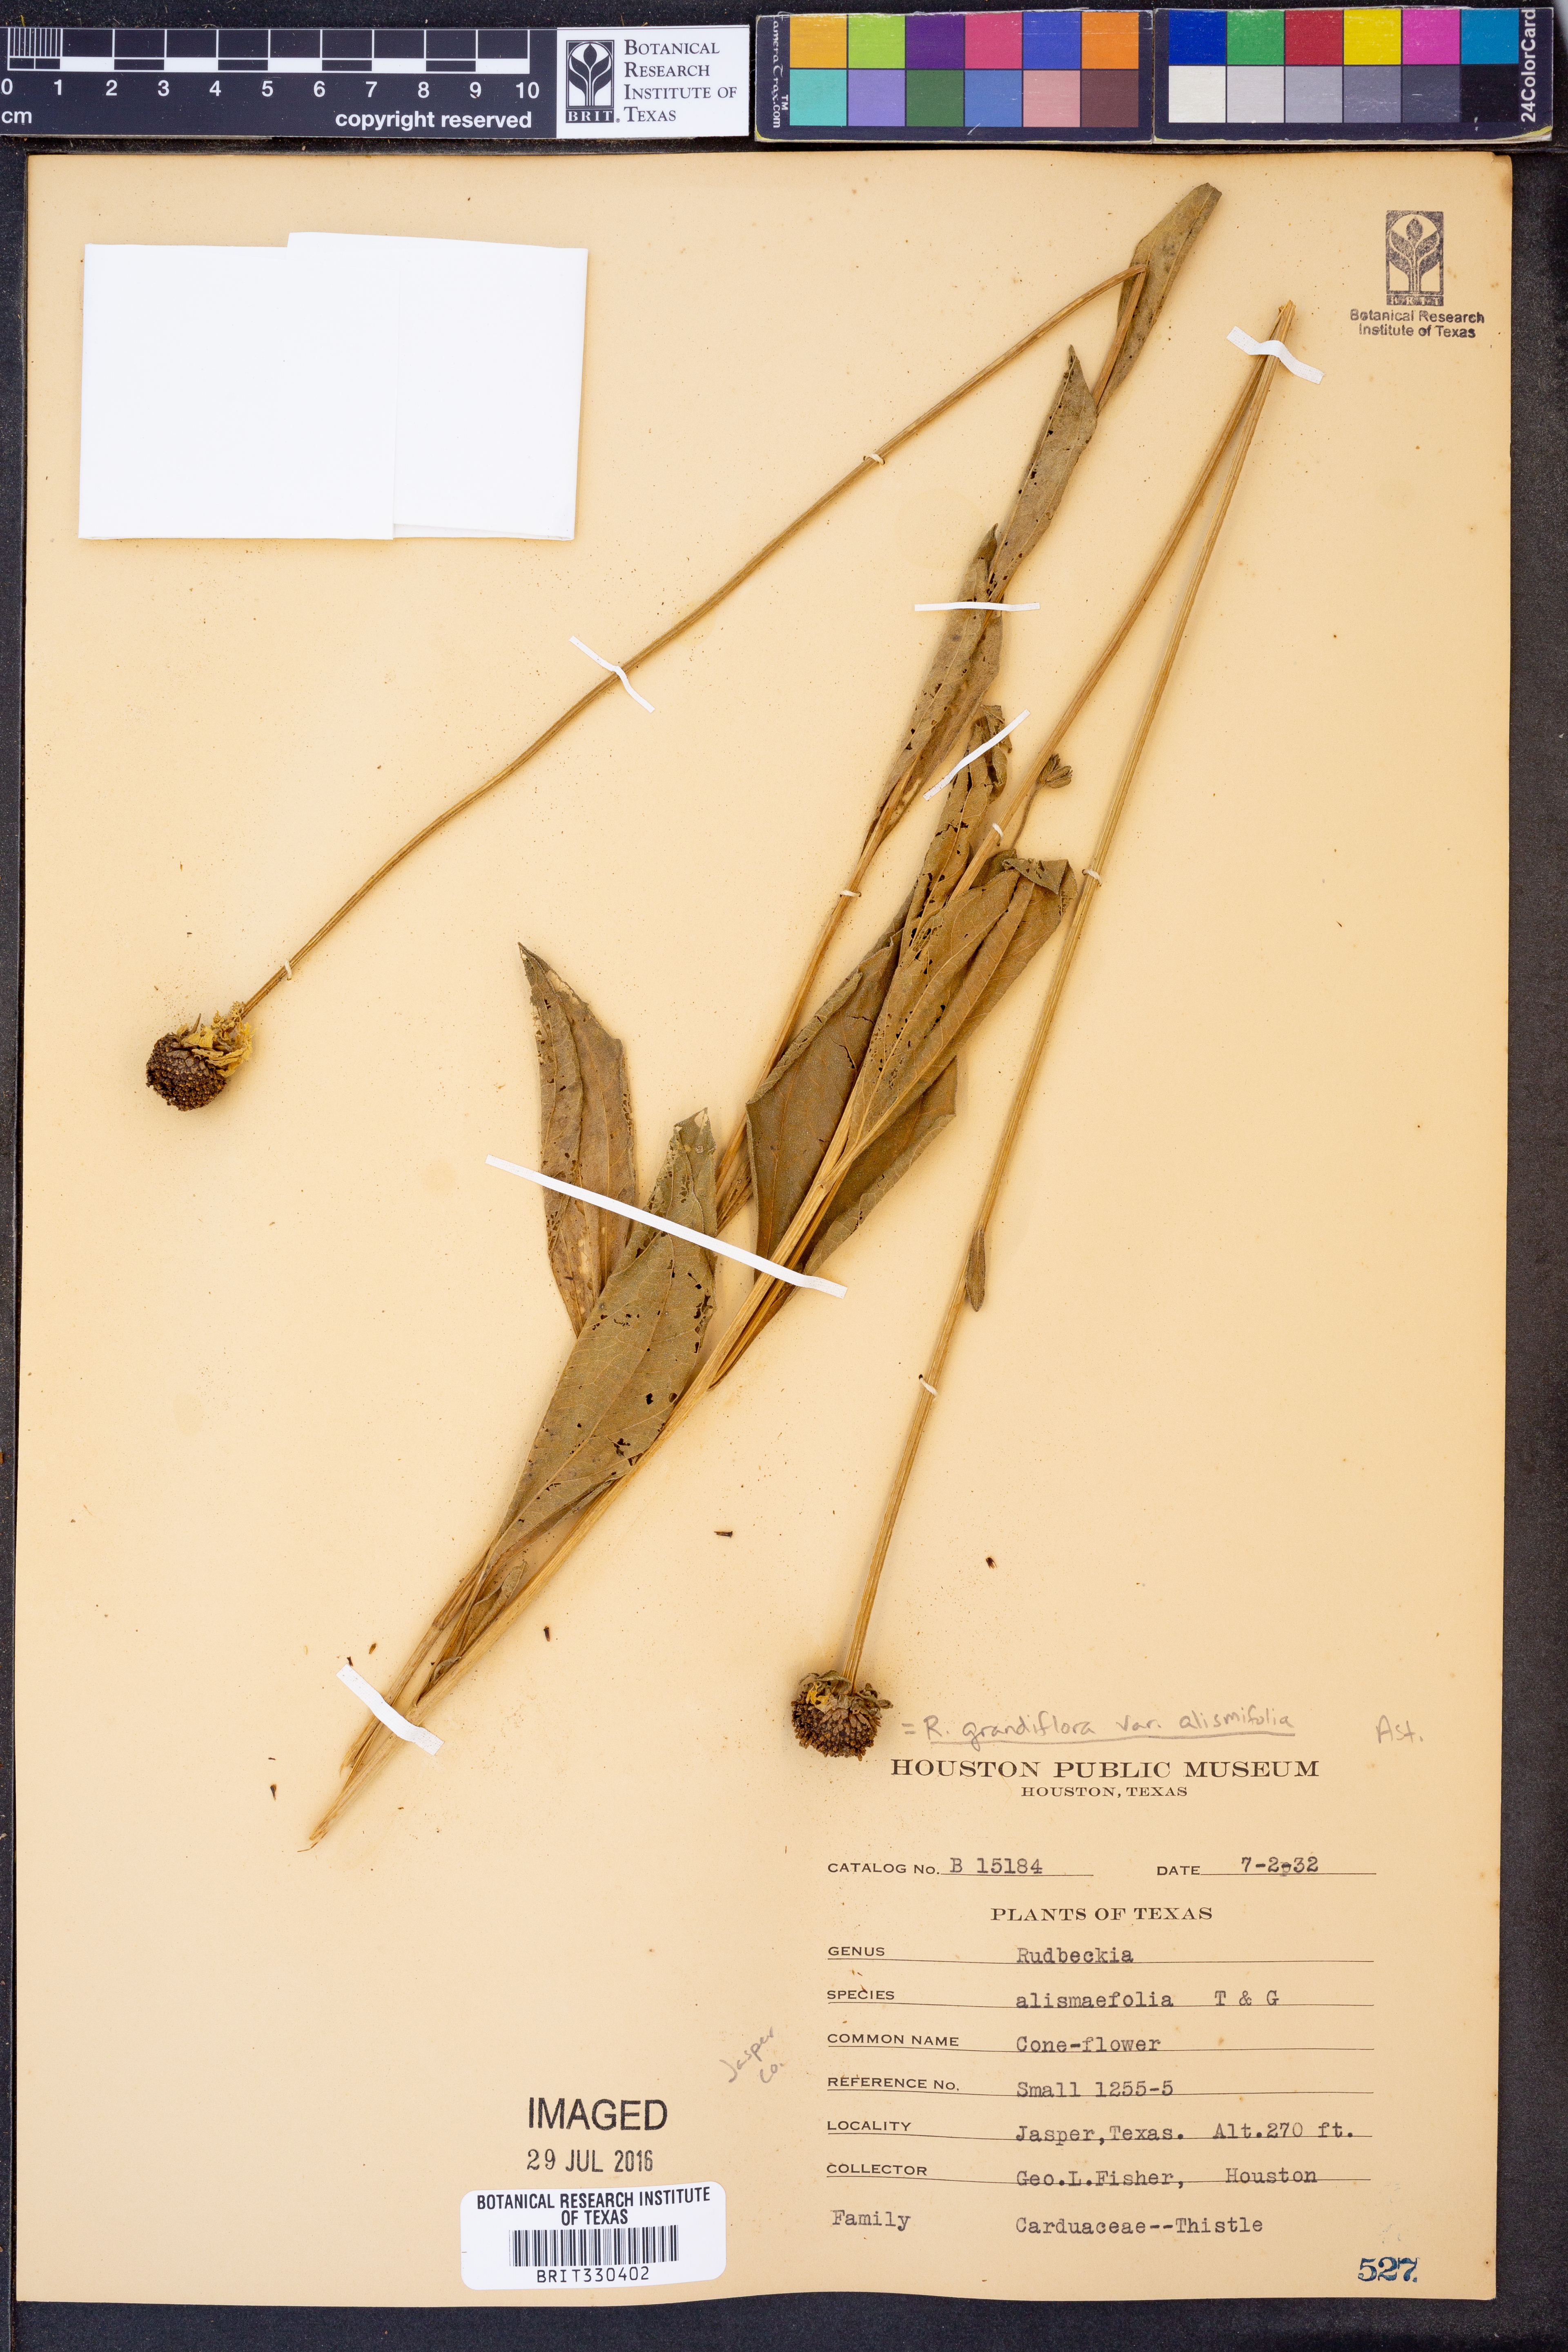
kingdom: Plantae
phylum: Tracheophyta
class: Magnoliopsida
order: Asterales
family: Asteraceae
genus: Rudbeckia
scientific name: Rudbeckia grandiflora
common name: Large-flowered coneflower
